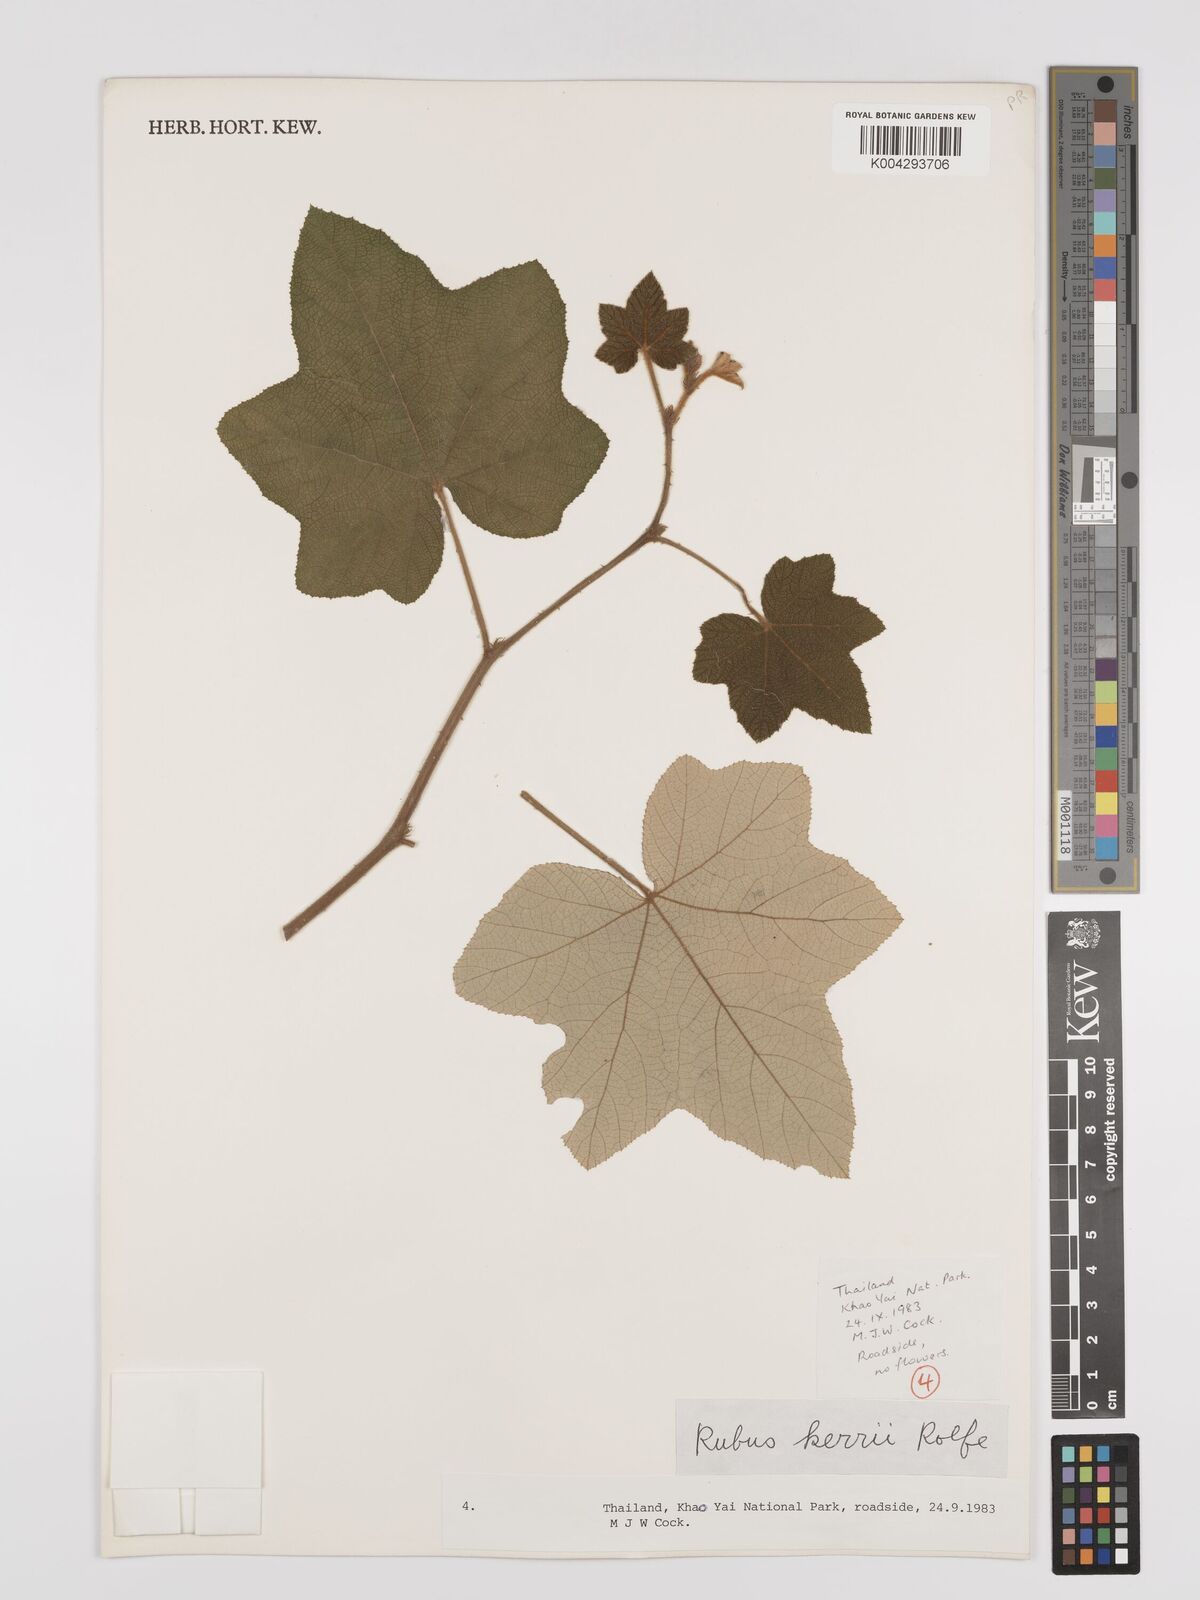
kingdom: Plantae
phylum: Tracheophyta
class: Magnoliopsida
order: Rosales
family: Rosaceae
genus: Rubus
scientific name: Rubus rufus
